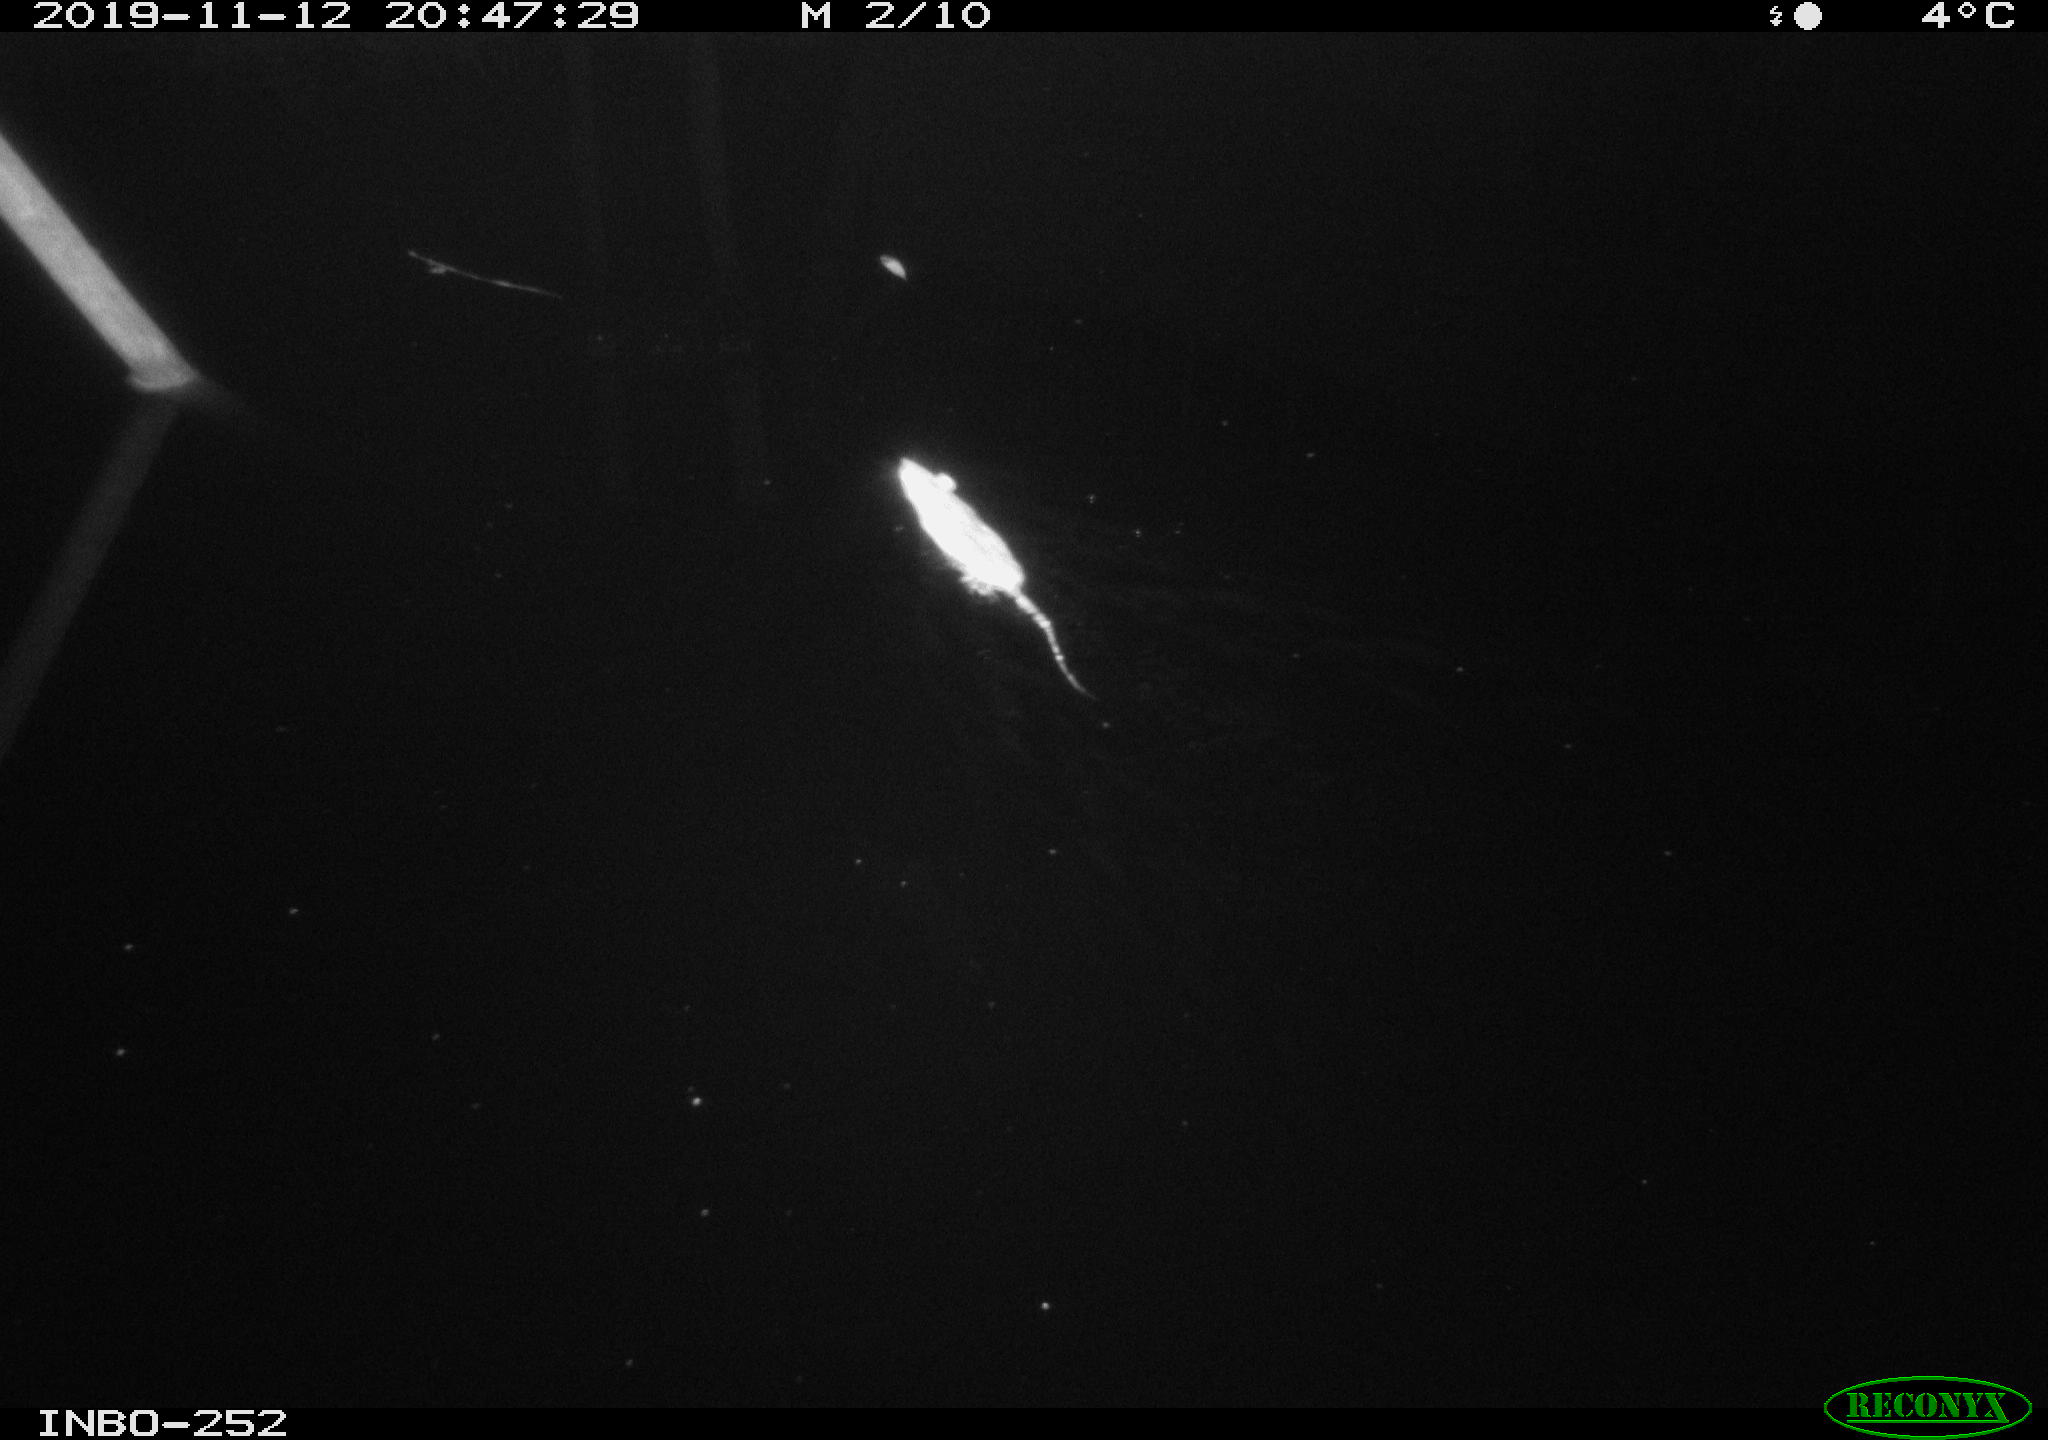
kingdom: Animalia
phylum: Chordata
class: Mammalia
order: Rodentia
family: Muridae
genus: Rattus
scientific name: Rattus norvegicus
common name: Brown rat
